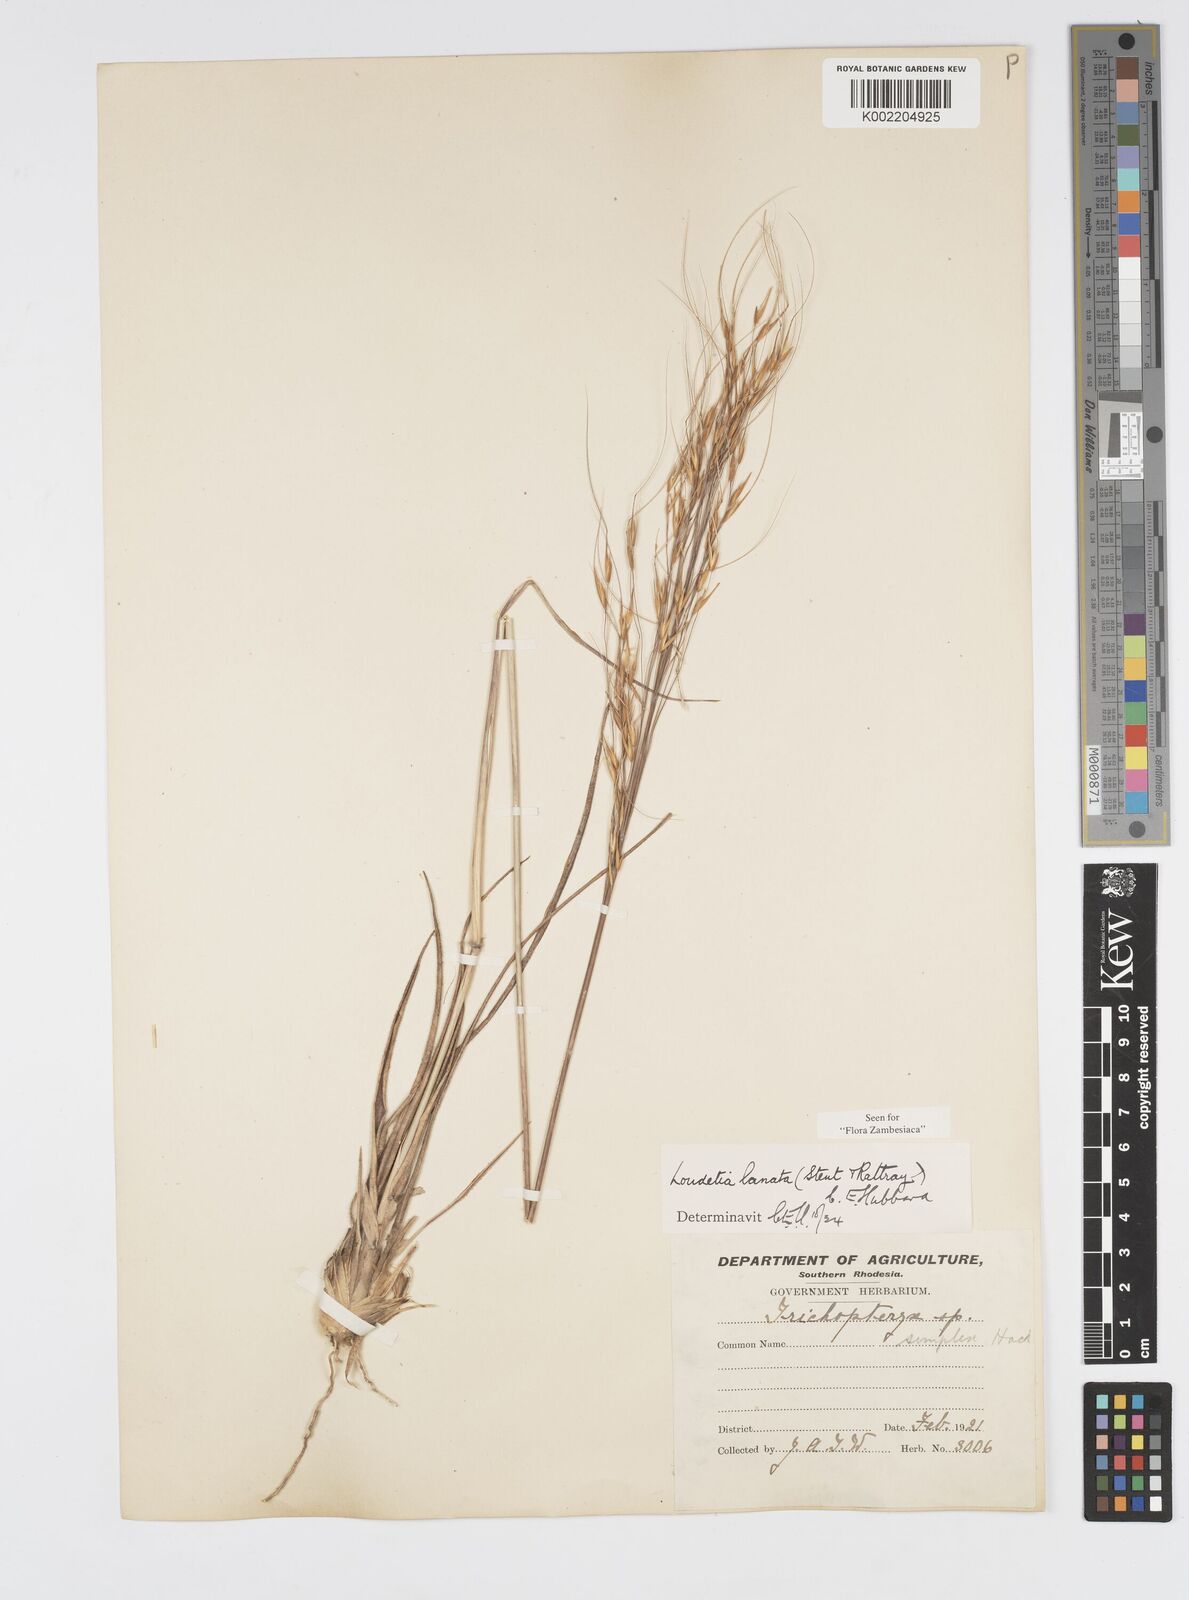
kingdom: Plantae
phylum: Tracheophyta
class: Liliopsida
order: Poales
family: Poaceae
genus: Loudetia
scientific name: Loudetia lanata
